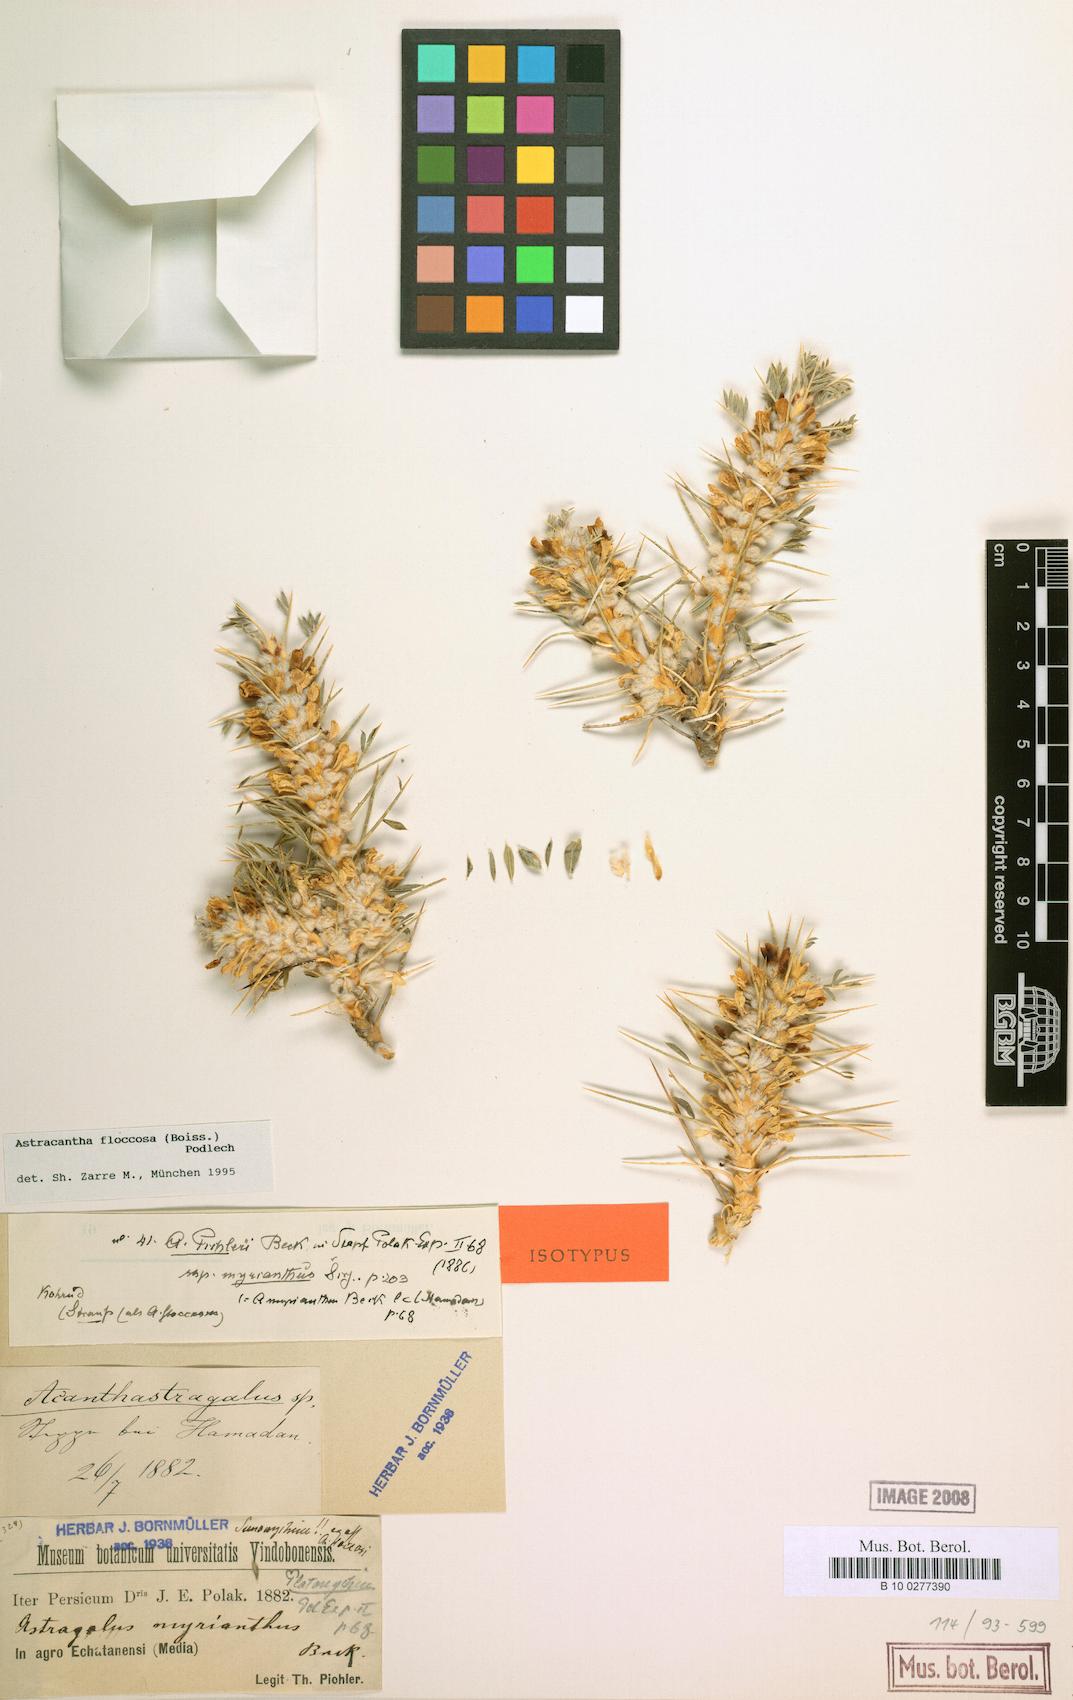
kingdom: Plantae
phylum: Tracheophyta
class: Magnoliopsida
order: Fabales
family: Fabaceae
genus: Astragalus
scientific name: Astragalus floccosus
